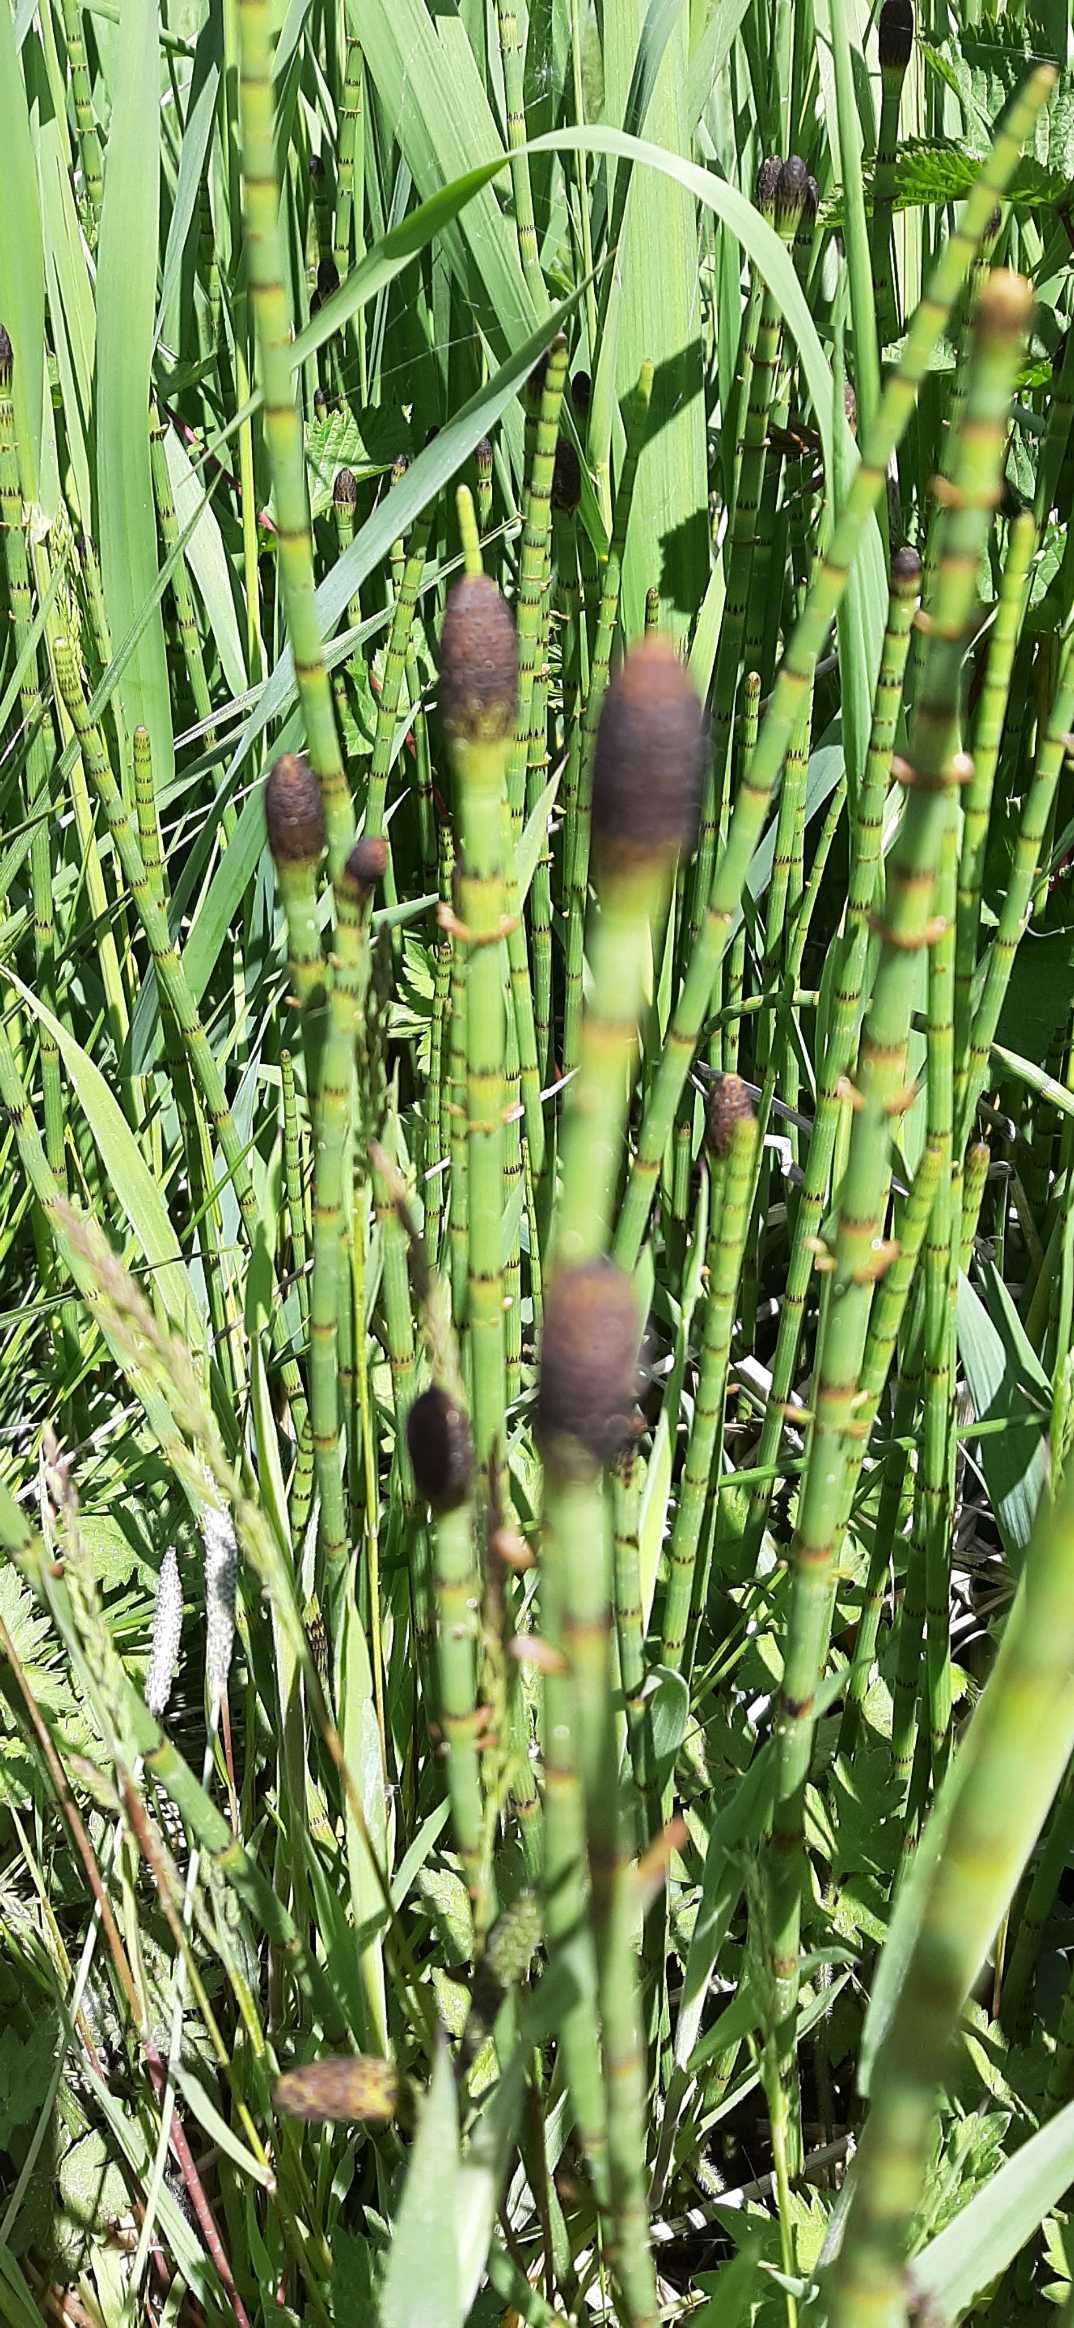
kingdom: Plantae
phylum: Tracheophyta
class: Polypodiopsida
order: Equisetales
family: Equisetaceae
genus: Equisetum
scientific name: Equisetum fluviatile
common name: Dynd-padderok
